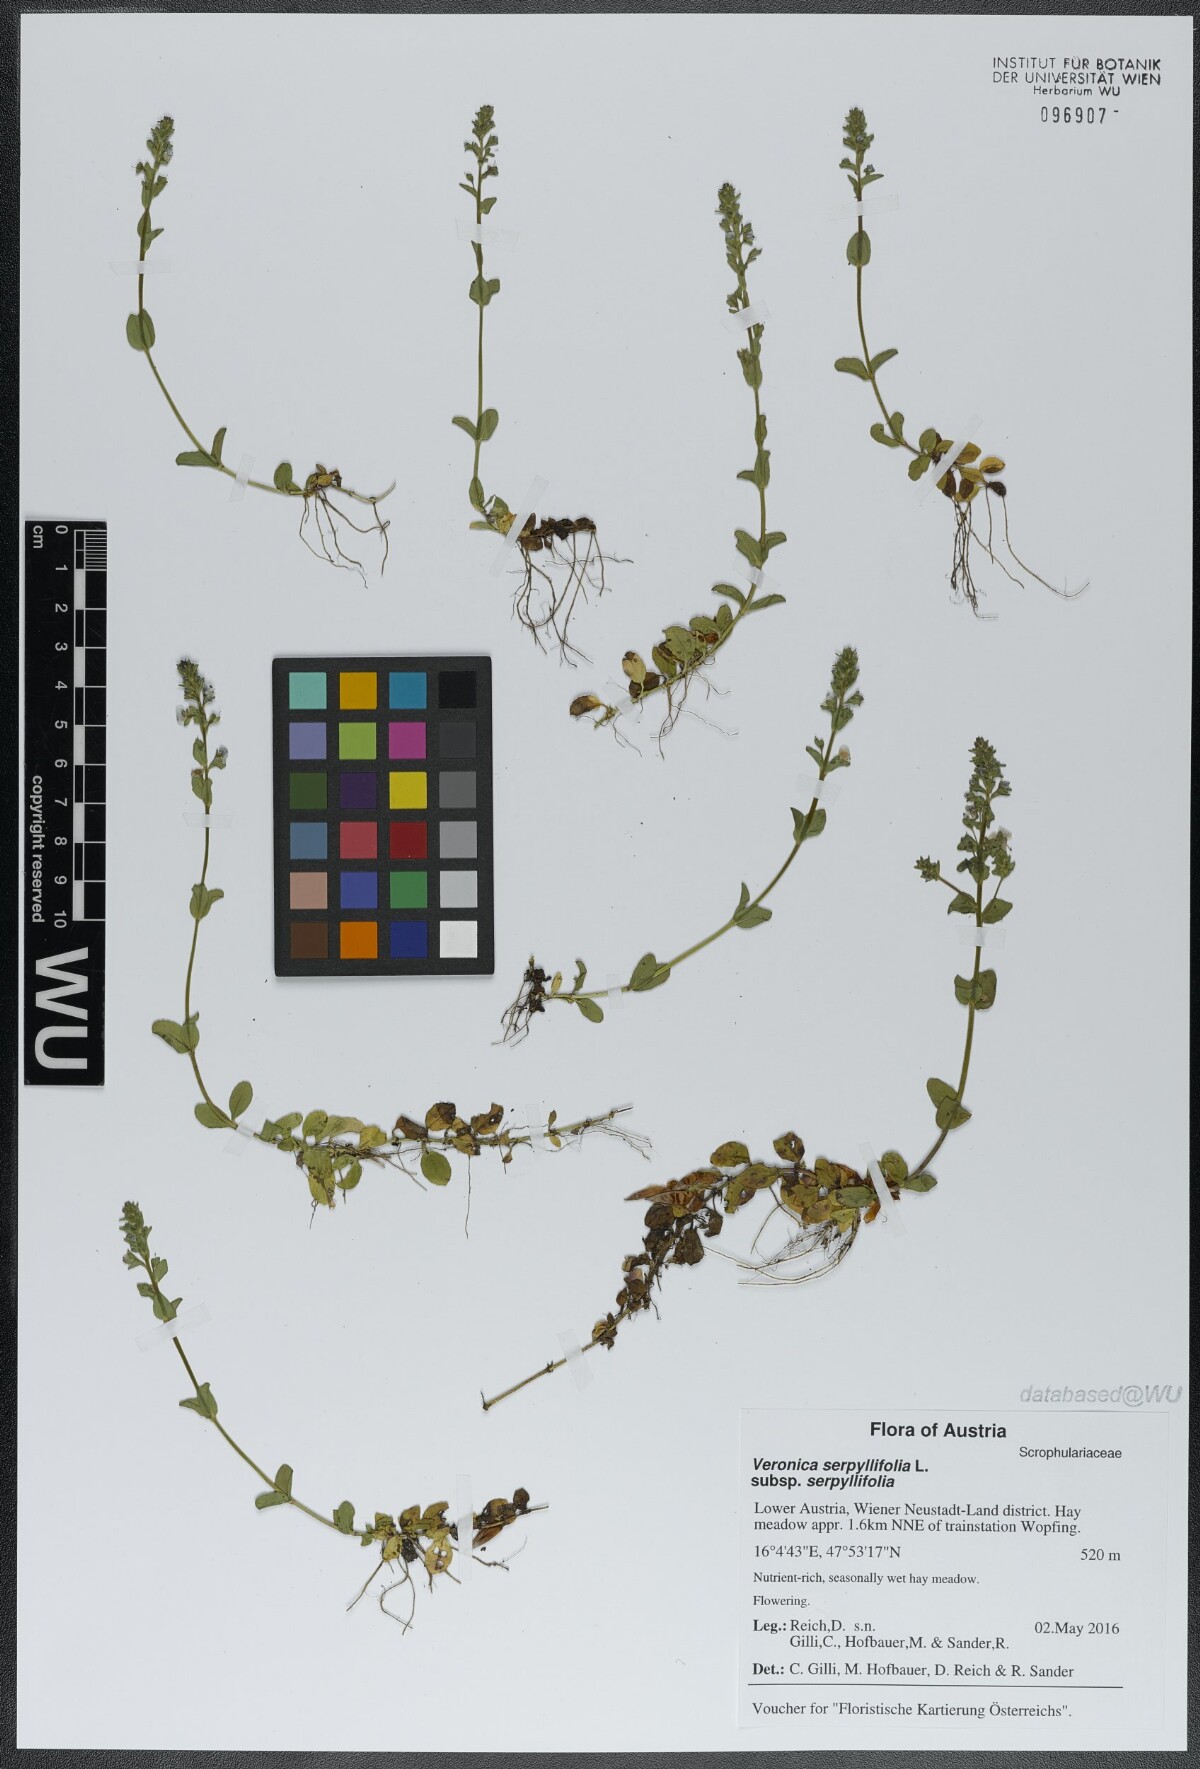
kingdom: Plantae
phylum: Tracheophyta
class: Magnoliopsida
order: Lamiales
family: Plantaginaceae
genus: Veronica
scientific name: Veronica serpyllifolia
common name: Thyme-leaved speedwell
